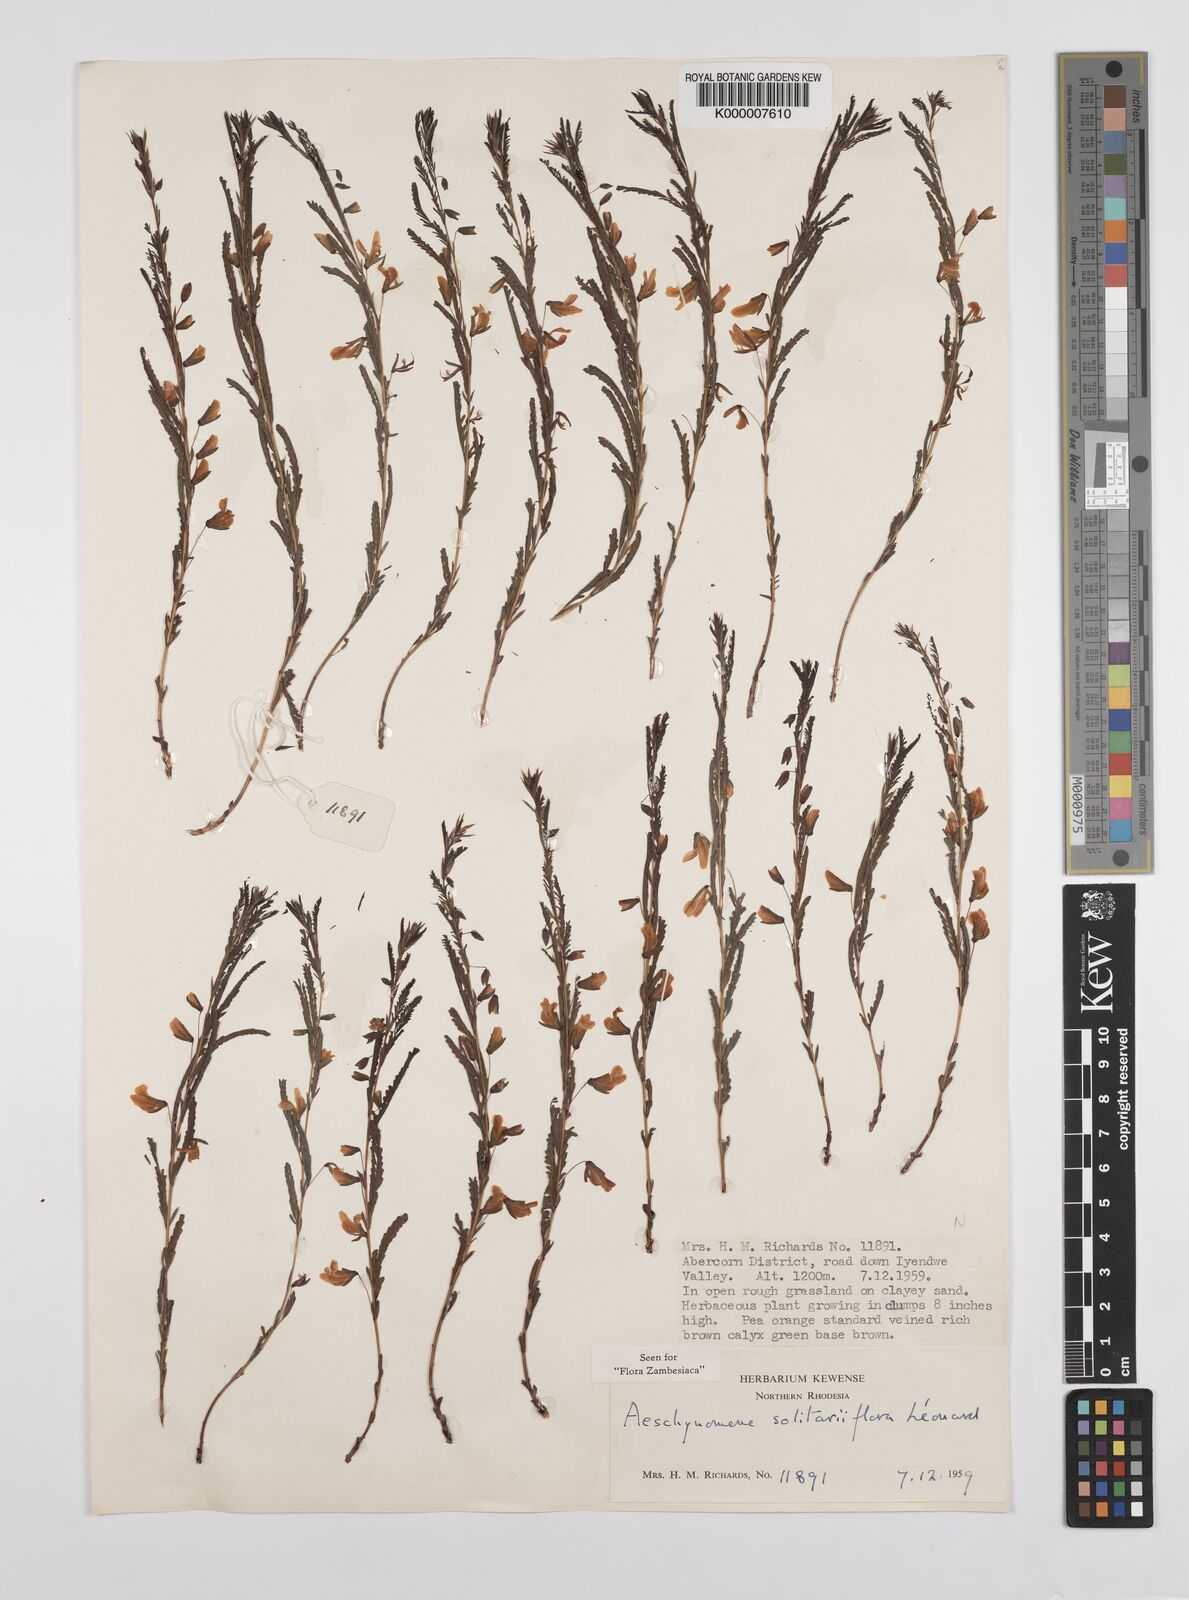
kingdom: Plantae
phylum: Tracheophyta
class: Magnoliopsida
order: Fabales
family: Fabaceae
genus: Aeschynomene
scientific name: Aeschynomene solitariiflora
